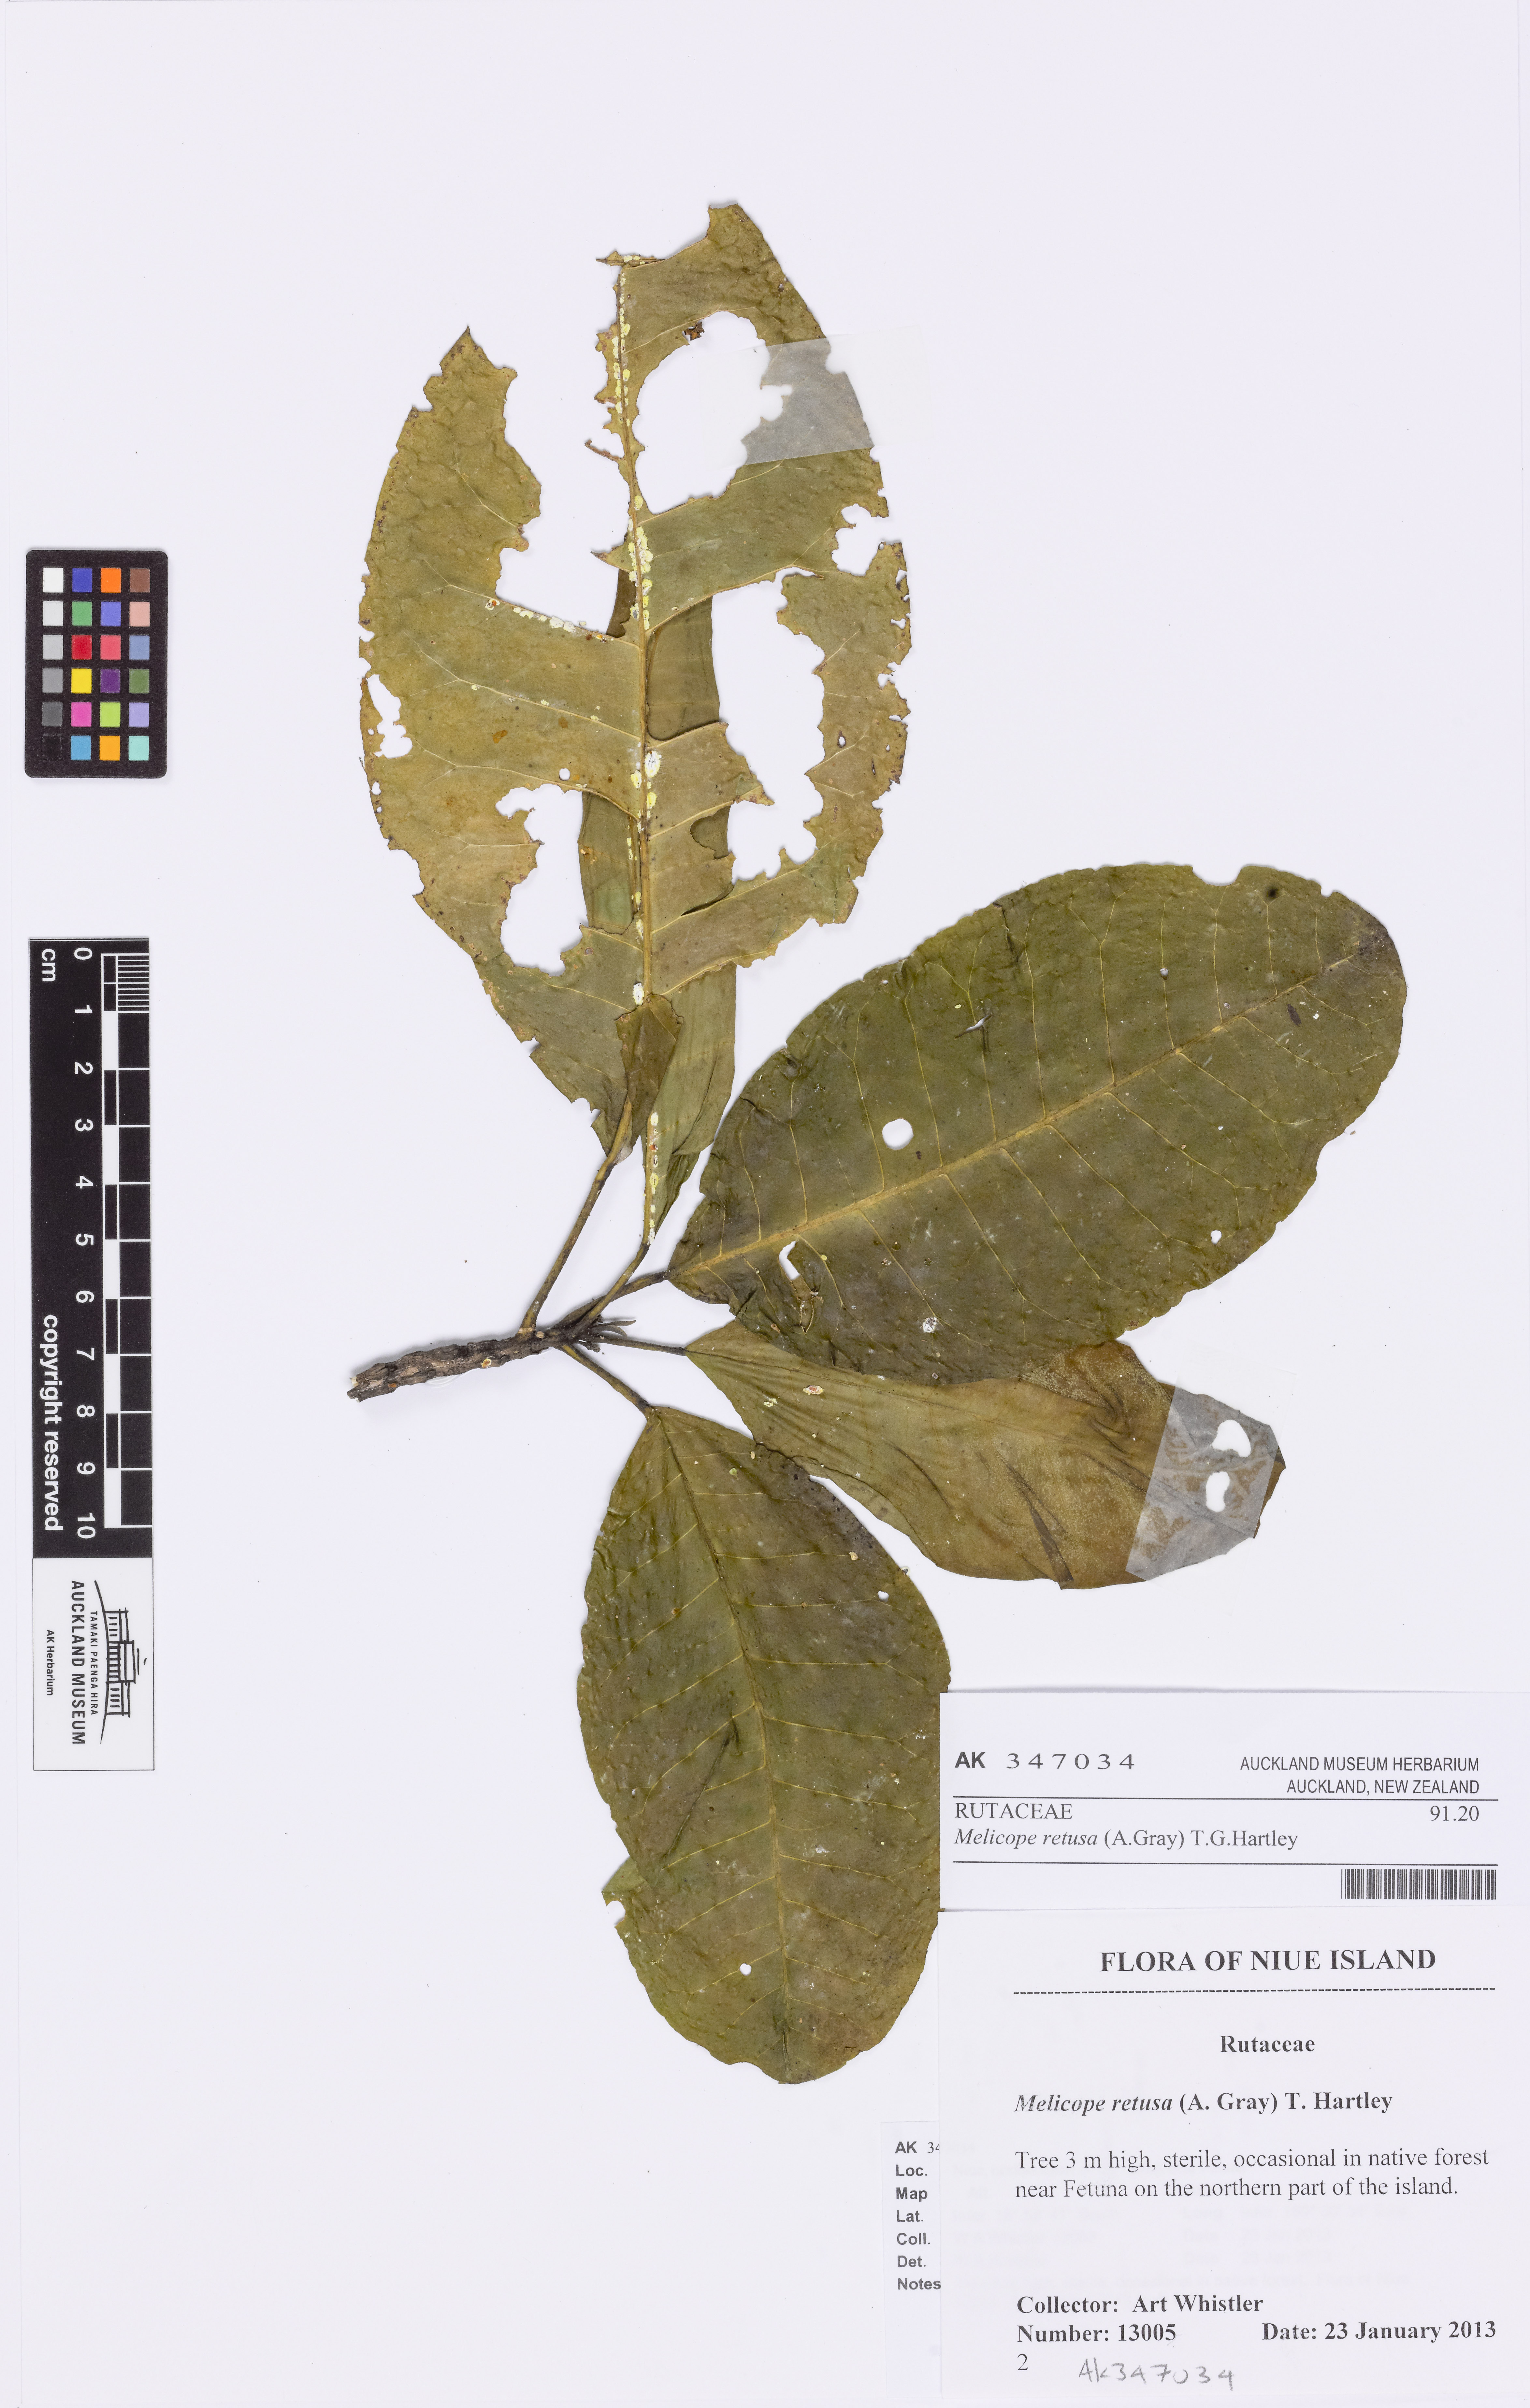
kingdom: Plantae
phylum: Tracheophyta
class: Magnoliopsida
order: Sapindales
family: Rutaceae
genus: Melicope
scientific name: Melicope retusa
